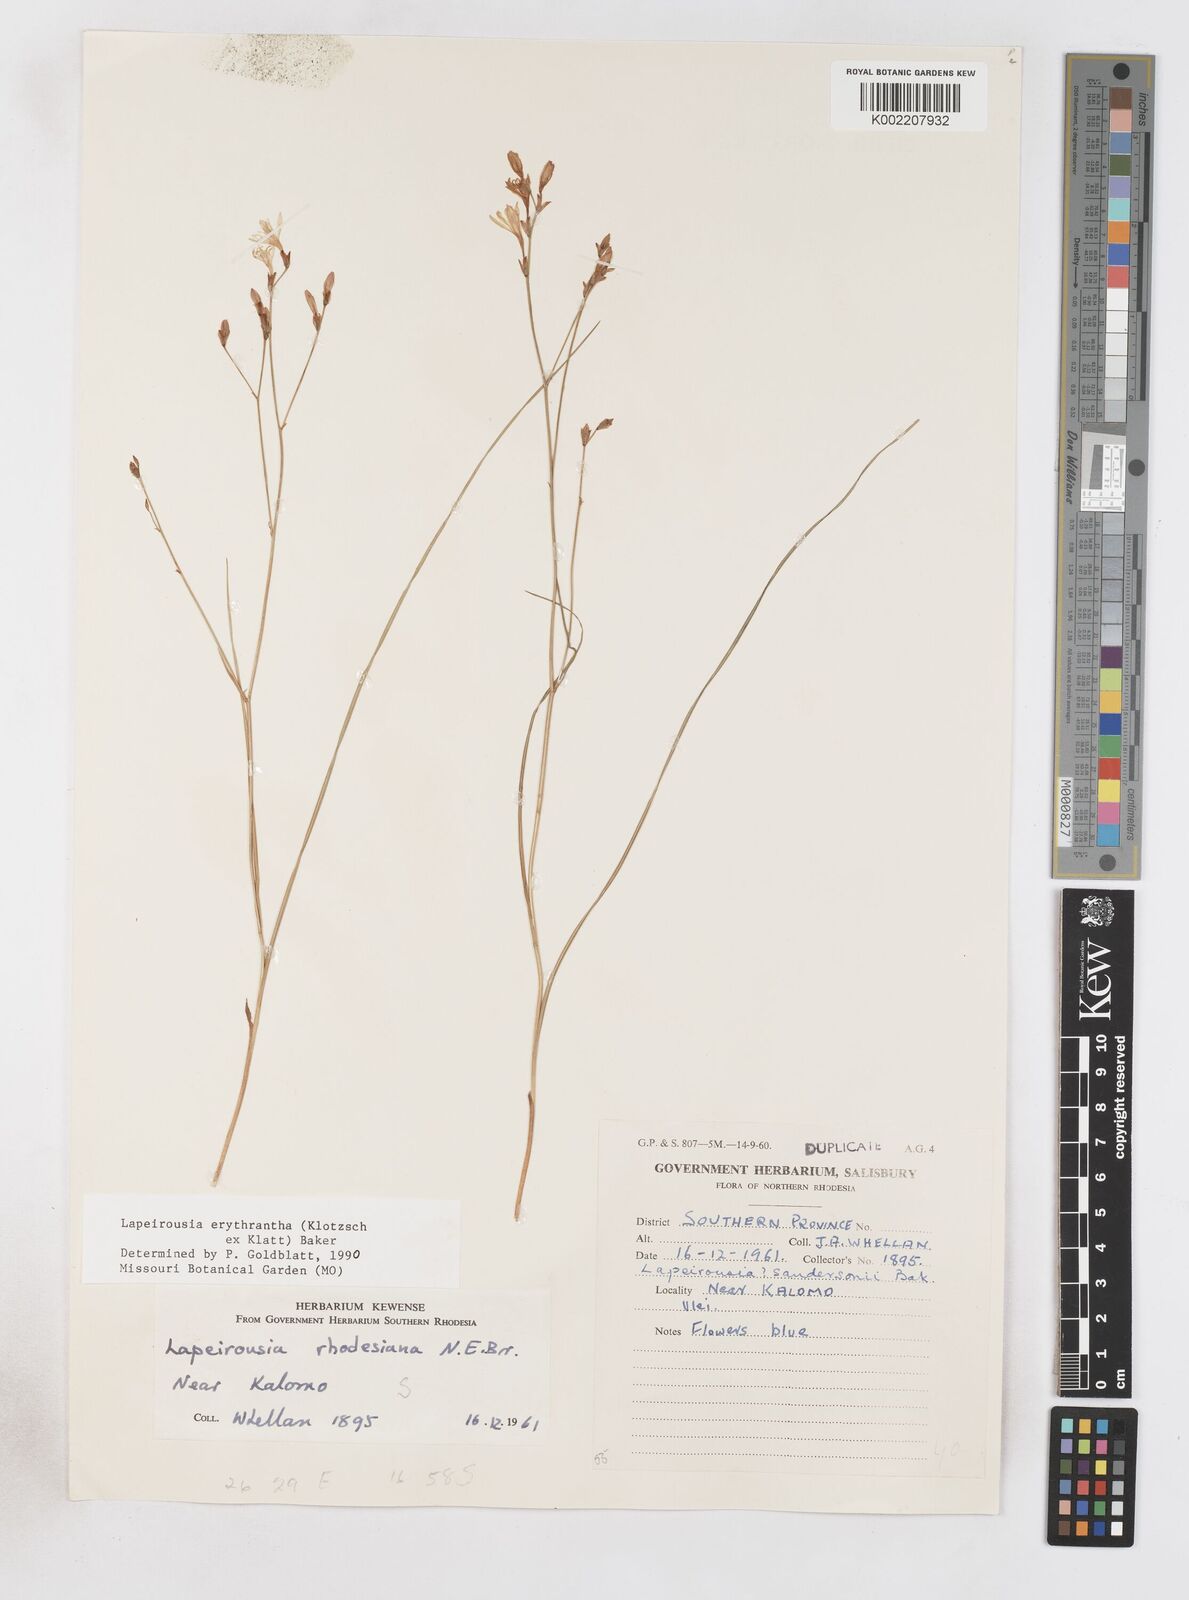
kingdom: Plantae
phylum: Tracheophyta
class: Liliopsida
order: Asparagales
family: Iridaceae
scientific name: Iridaceae
